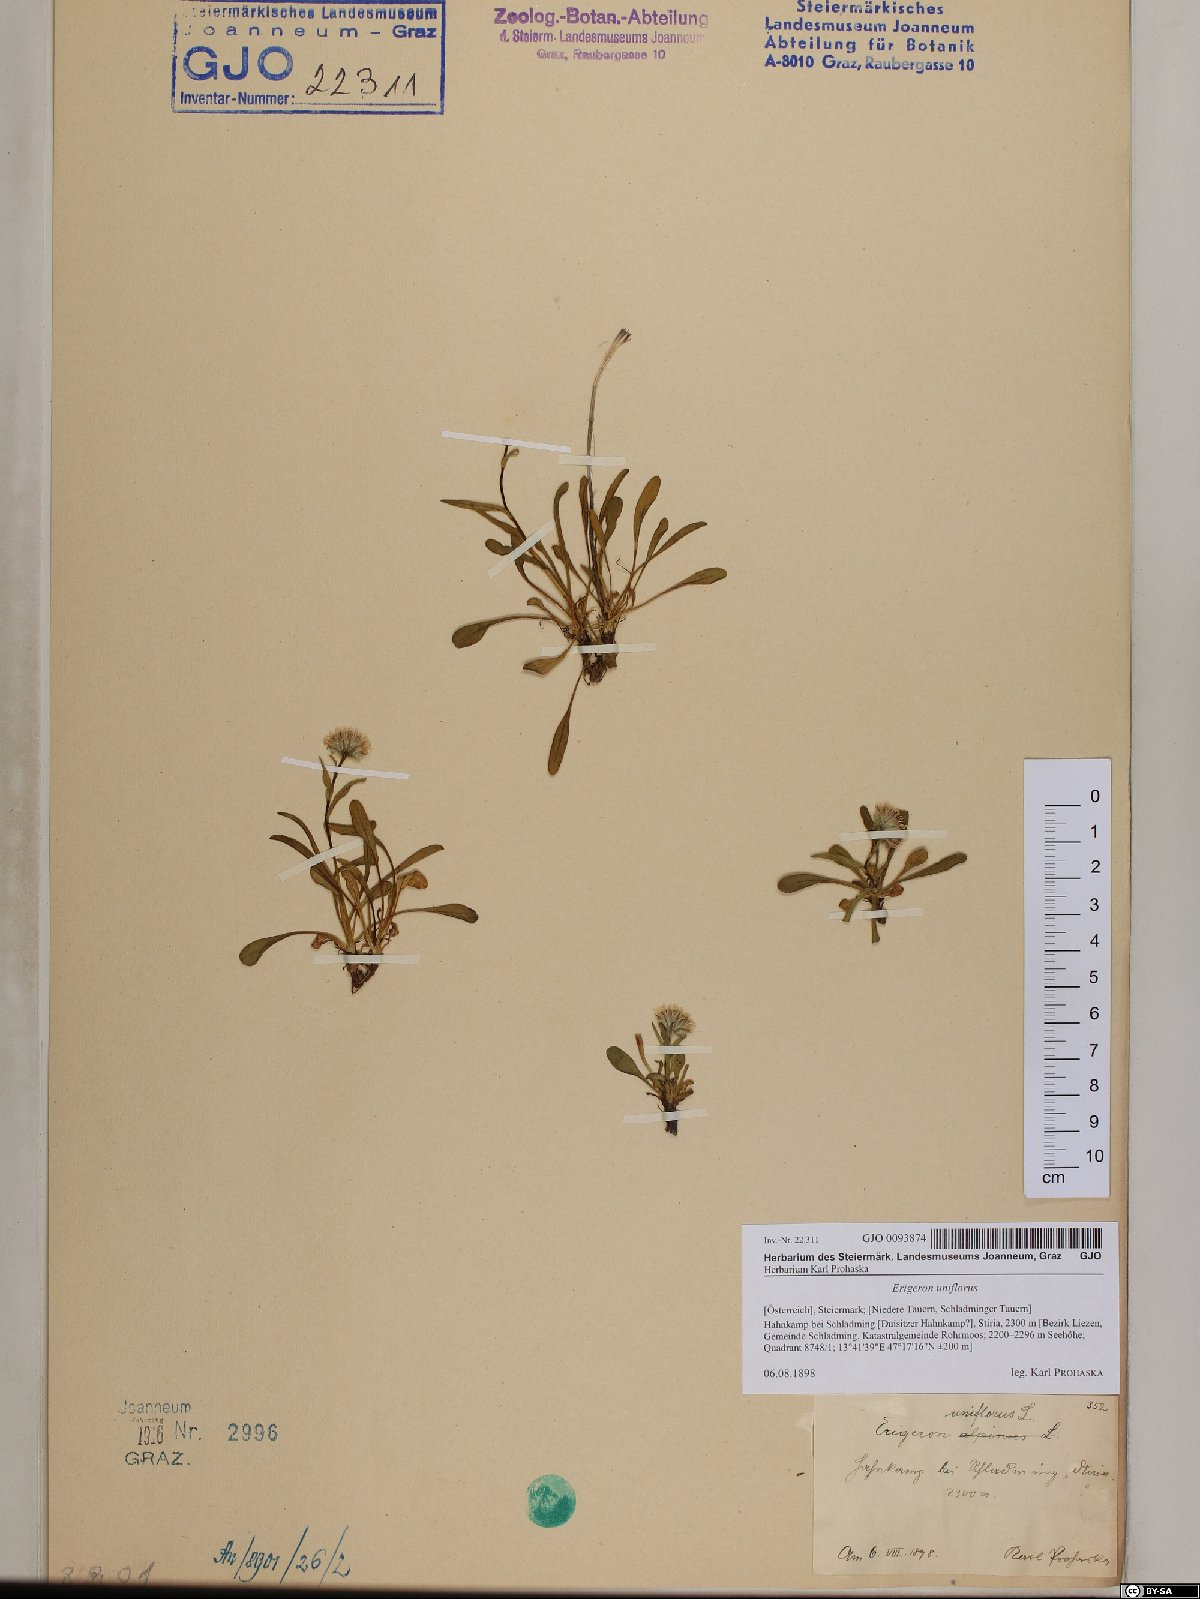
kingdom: Plantae
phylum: Tracheophyta
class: Magnoliopsida
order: Asterales
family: Asteraceae
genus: Erigeron
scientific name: Erigeron uniflorus
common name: Northern daisy
